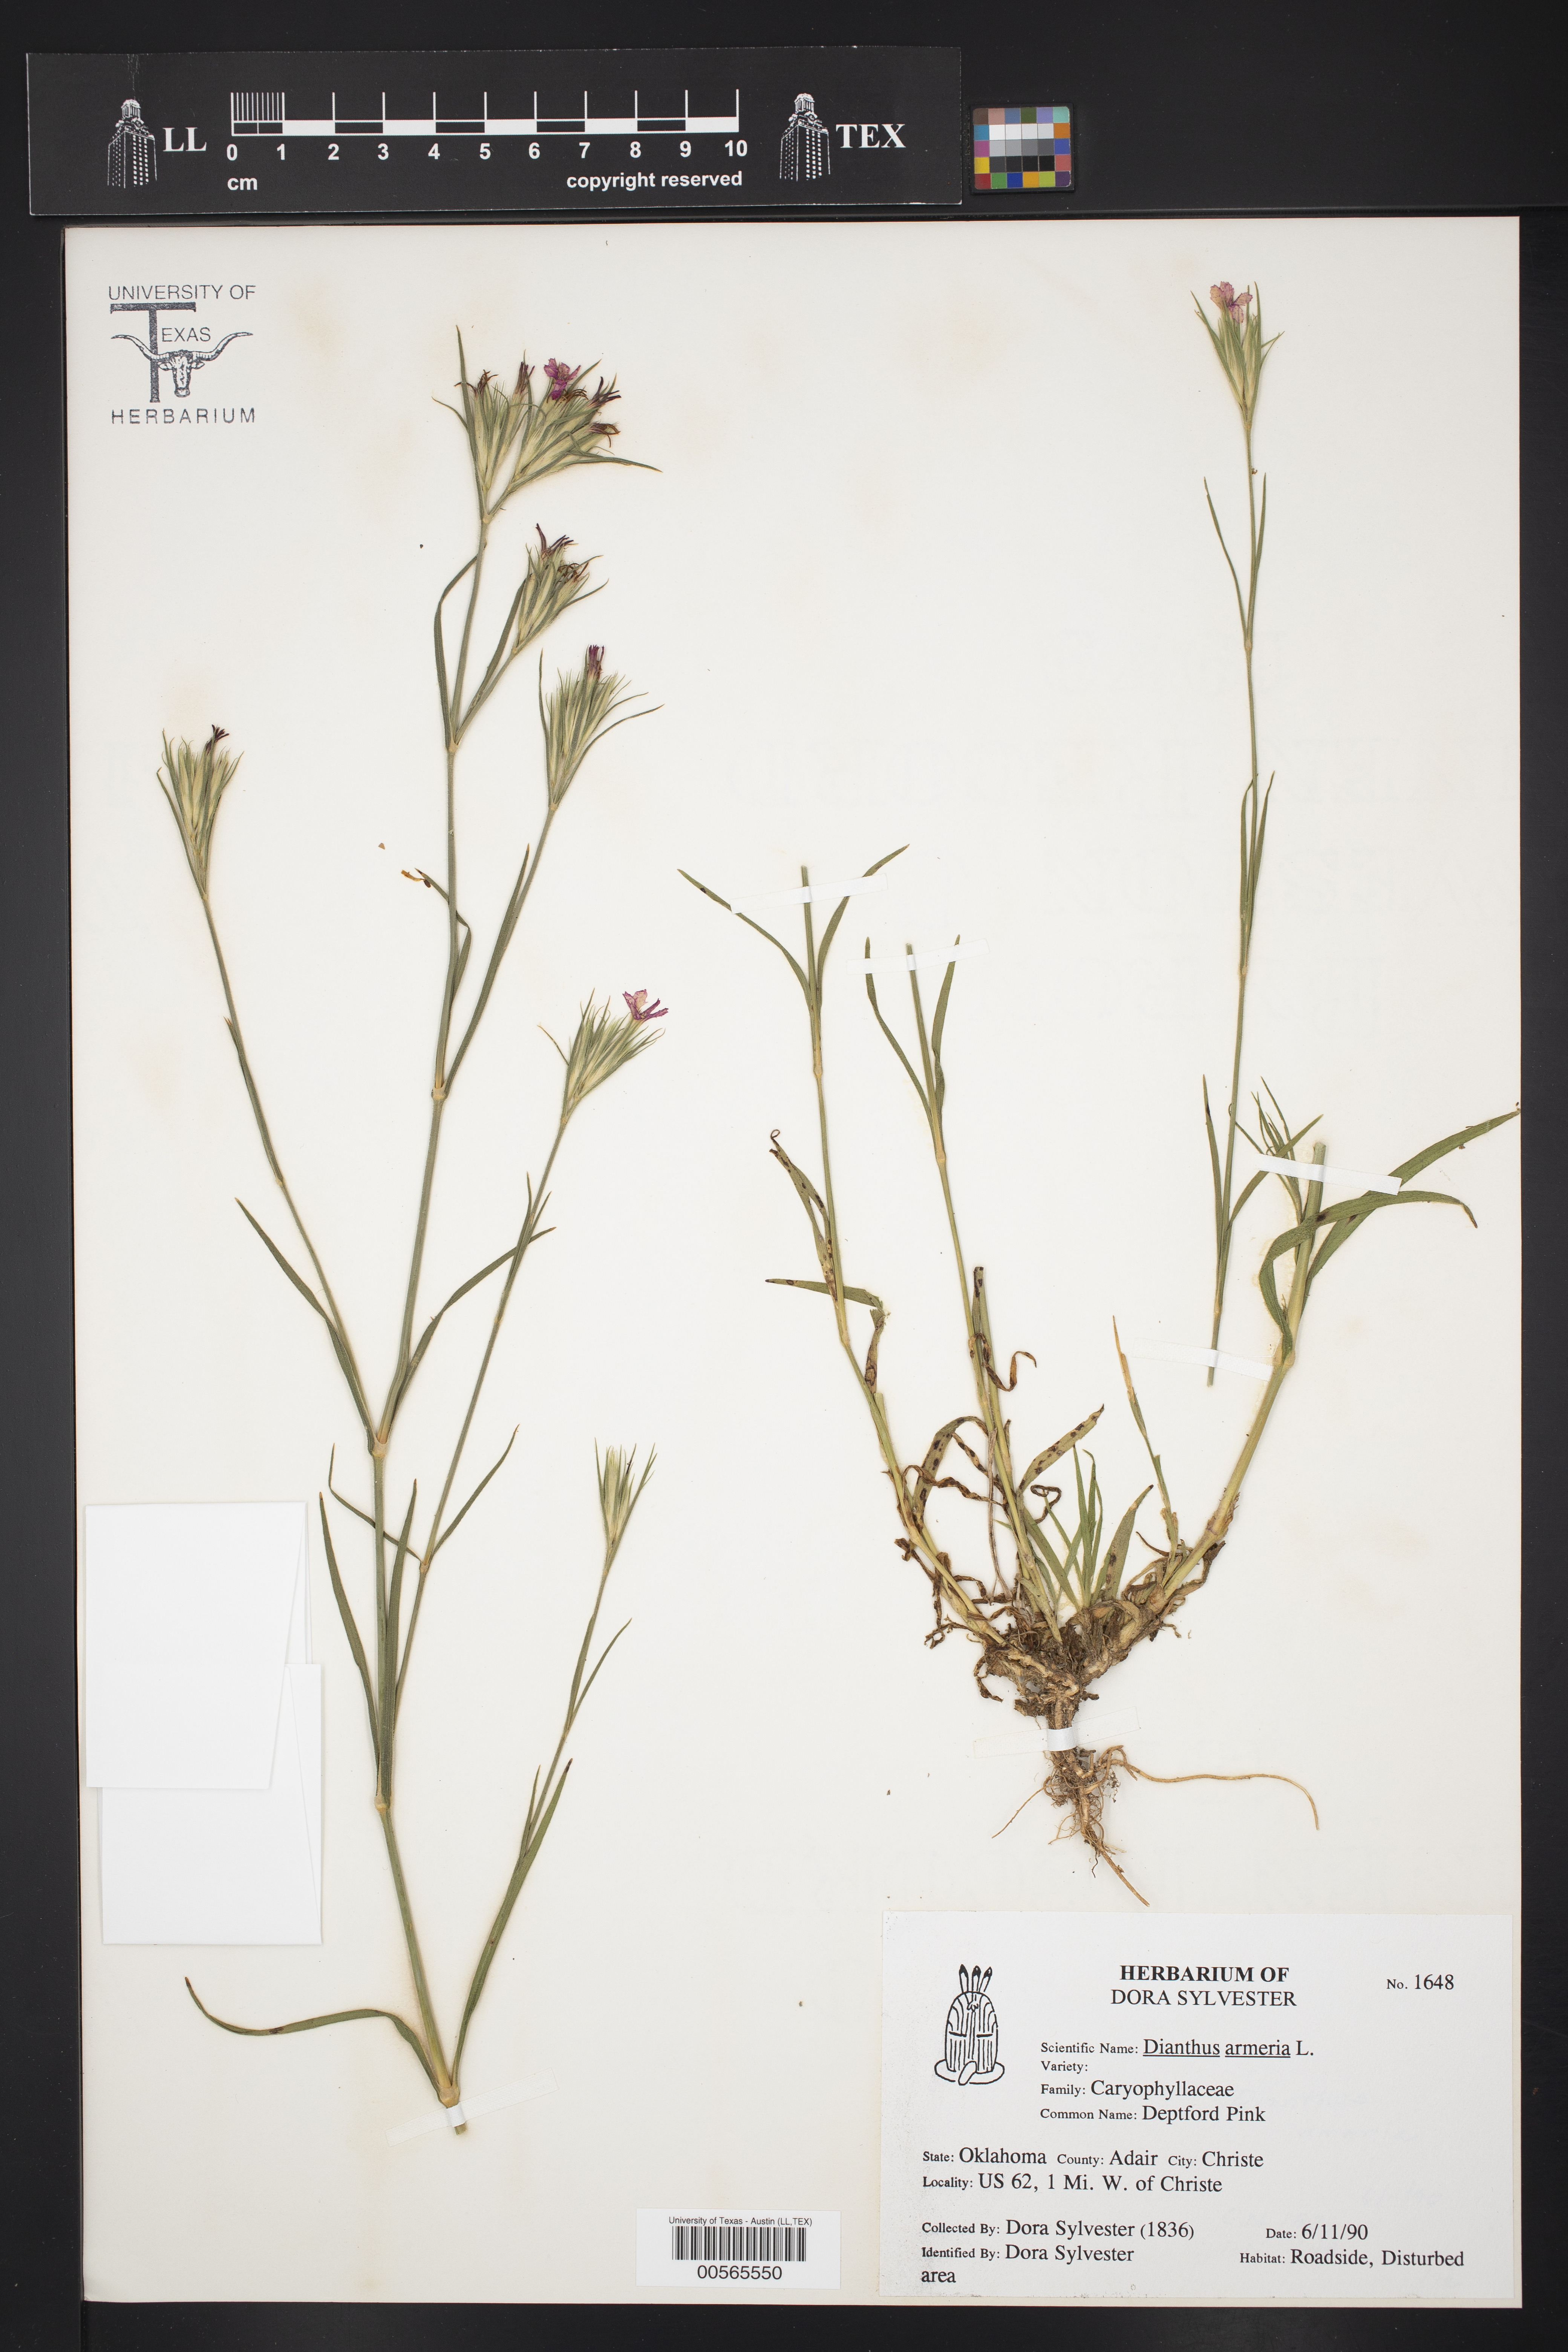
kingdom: Plantae
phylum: Tracheophyta
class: Magnoliopsida
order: Caryophyllales
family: Caryophyllaceae
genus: Dianthus
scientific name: Dianthus armeria
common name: Deptford pink
